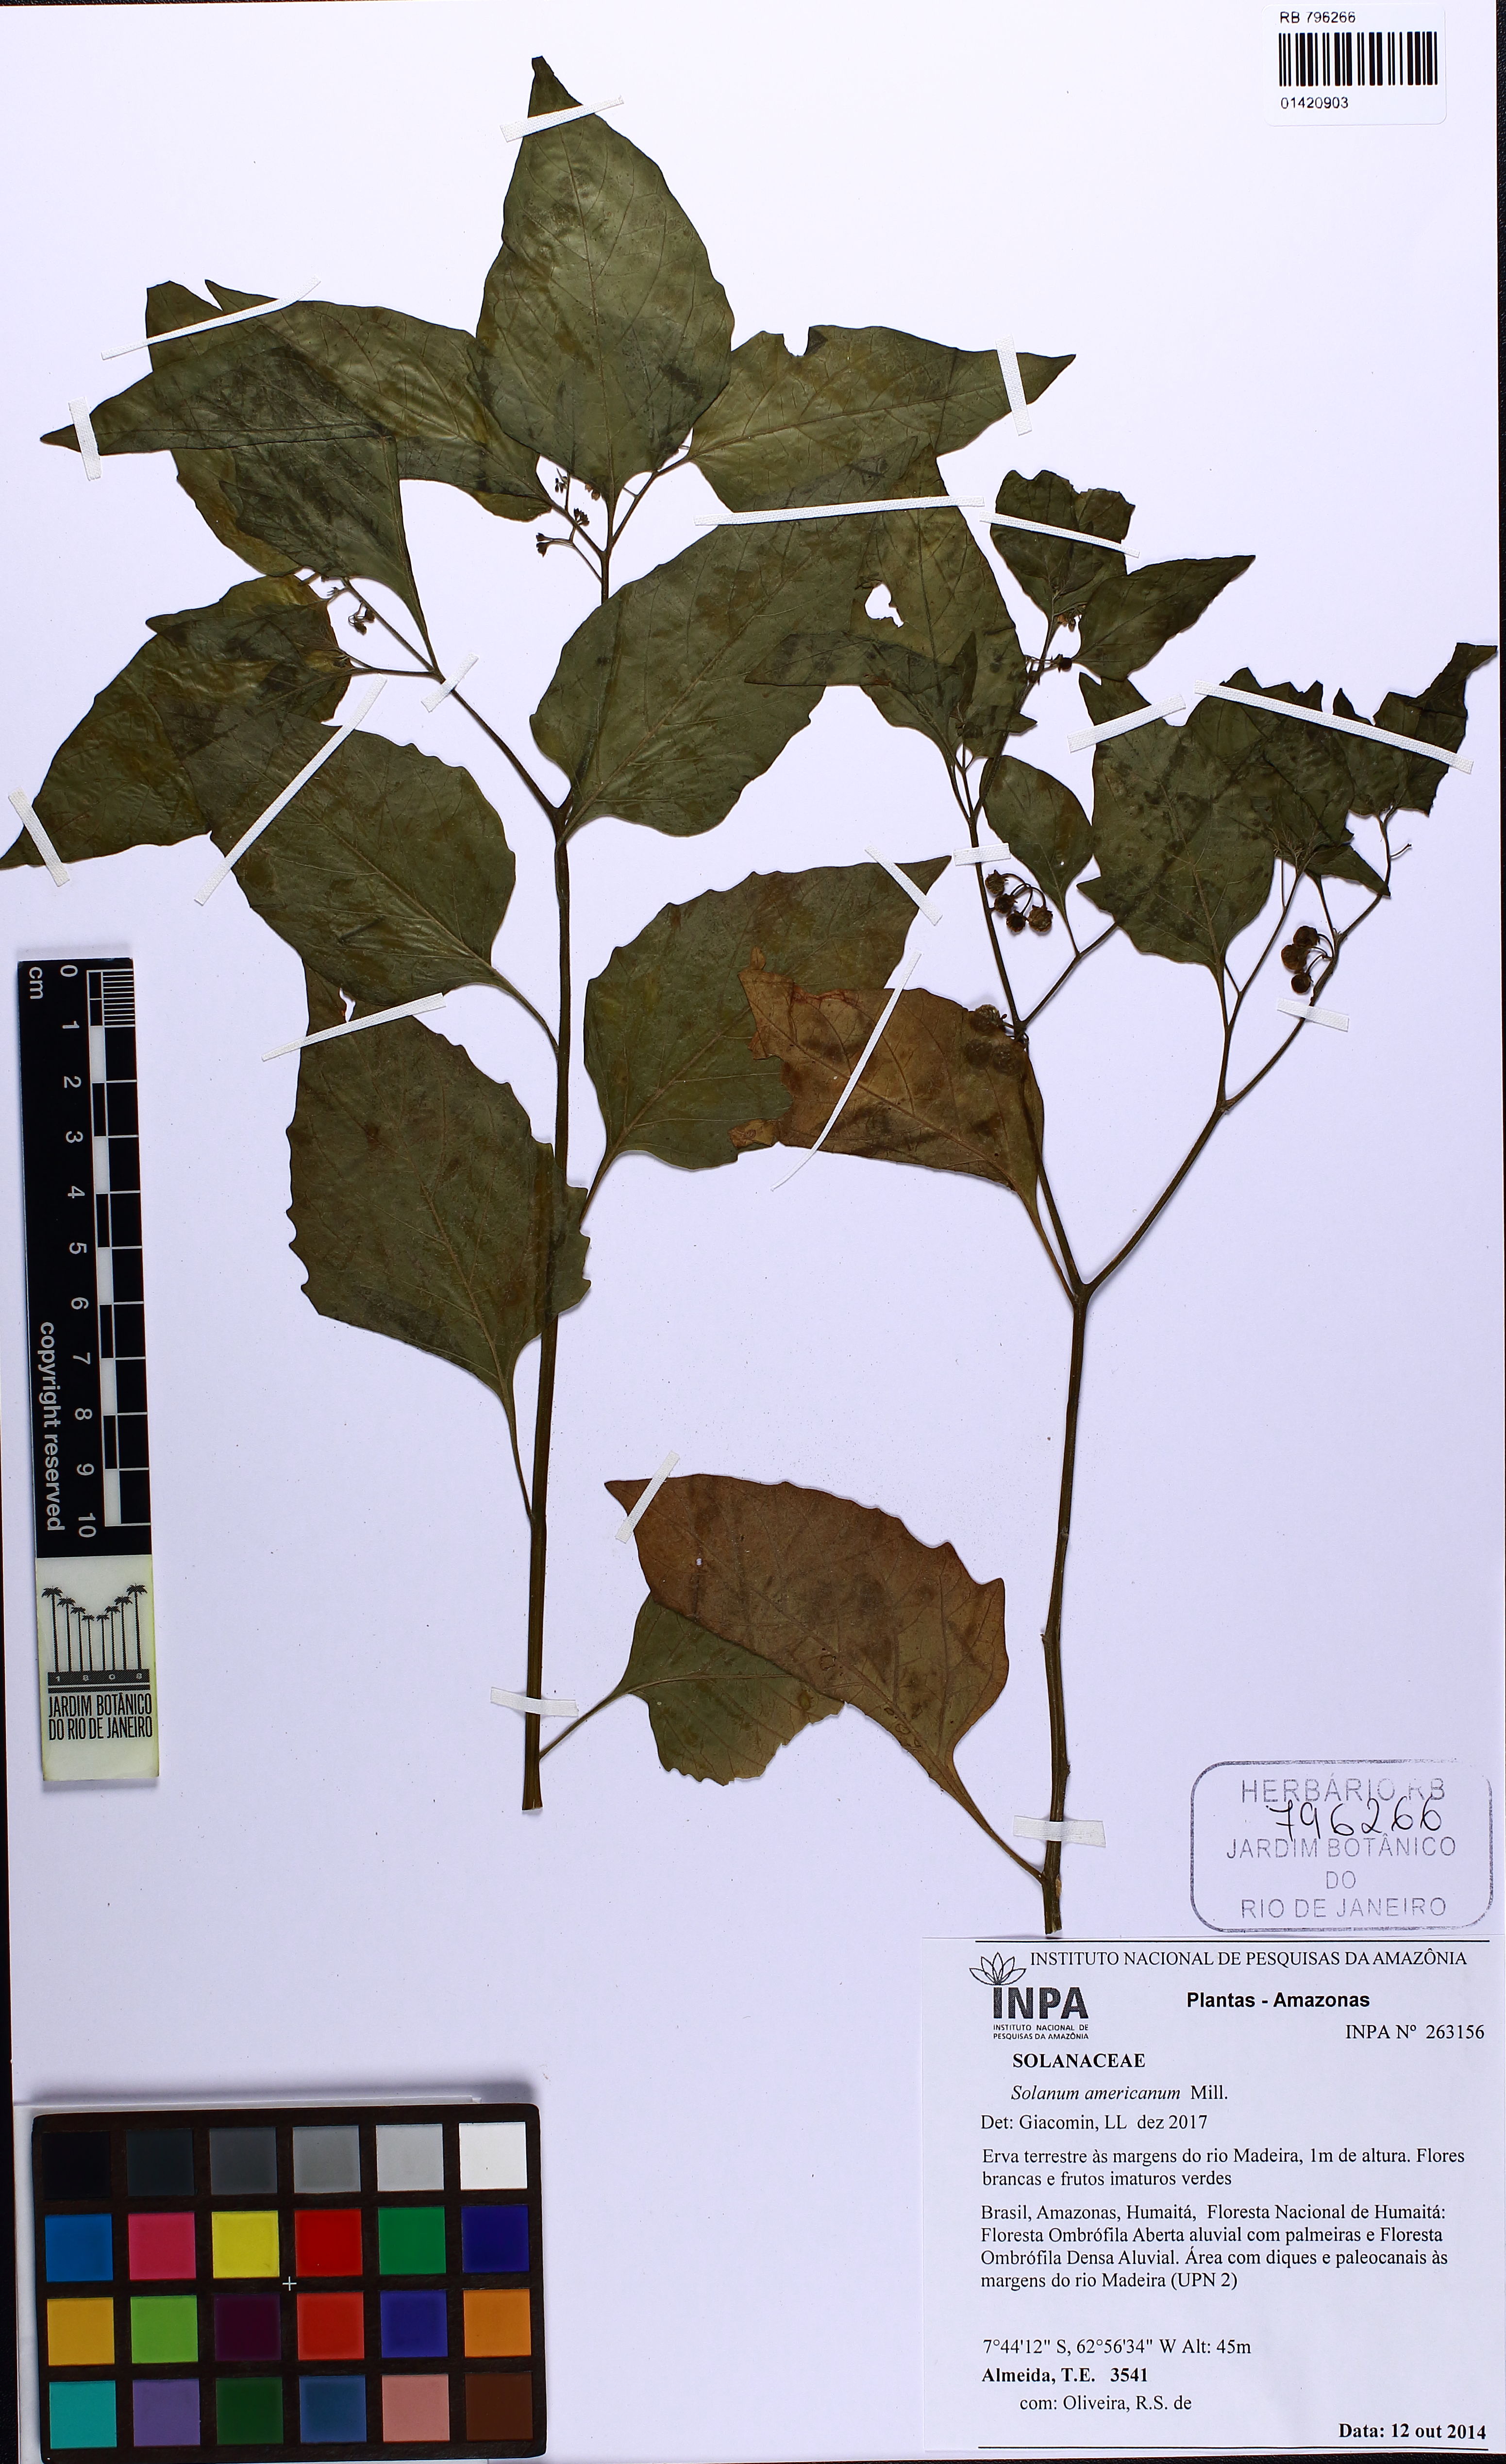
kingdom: Plantae
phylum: Tracheophyta
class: Magnoliopsida
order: Solanales
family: Solanaceae
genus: Solanum
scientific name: Solanum americanum
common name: American black nightshade
